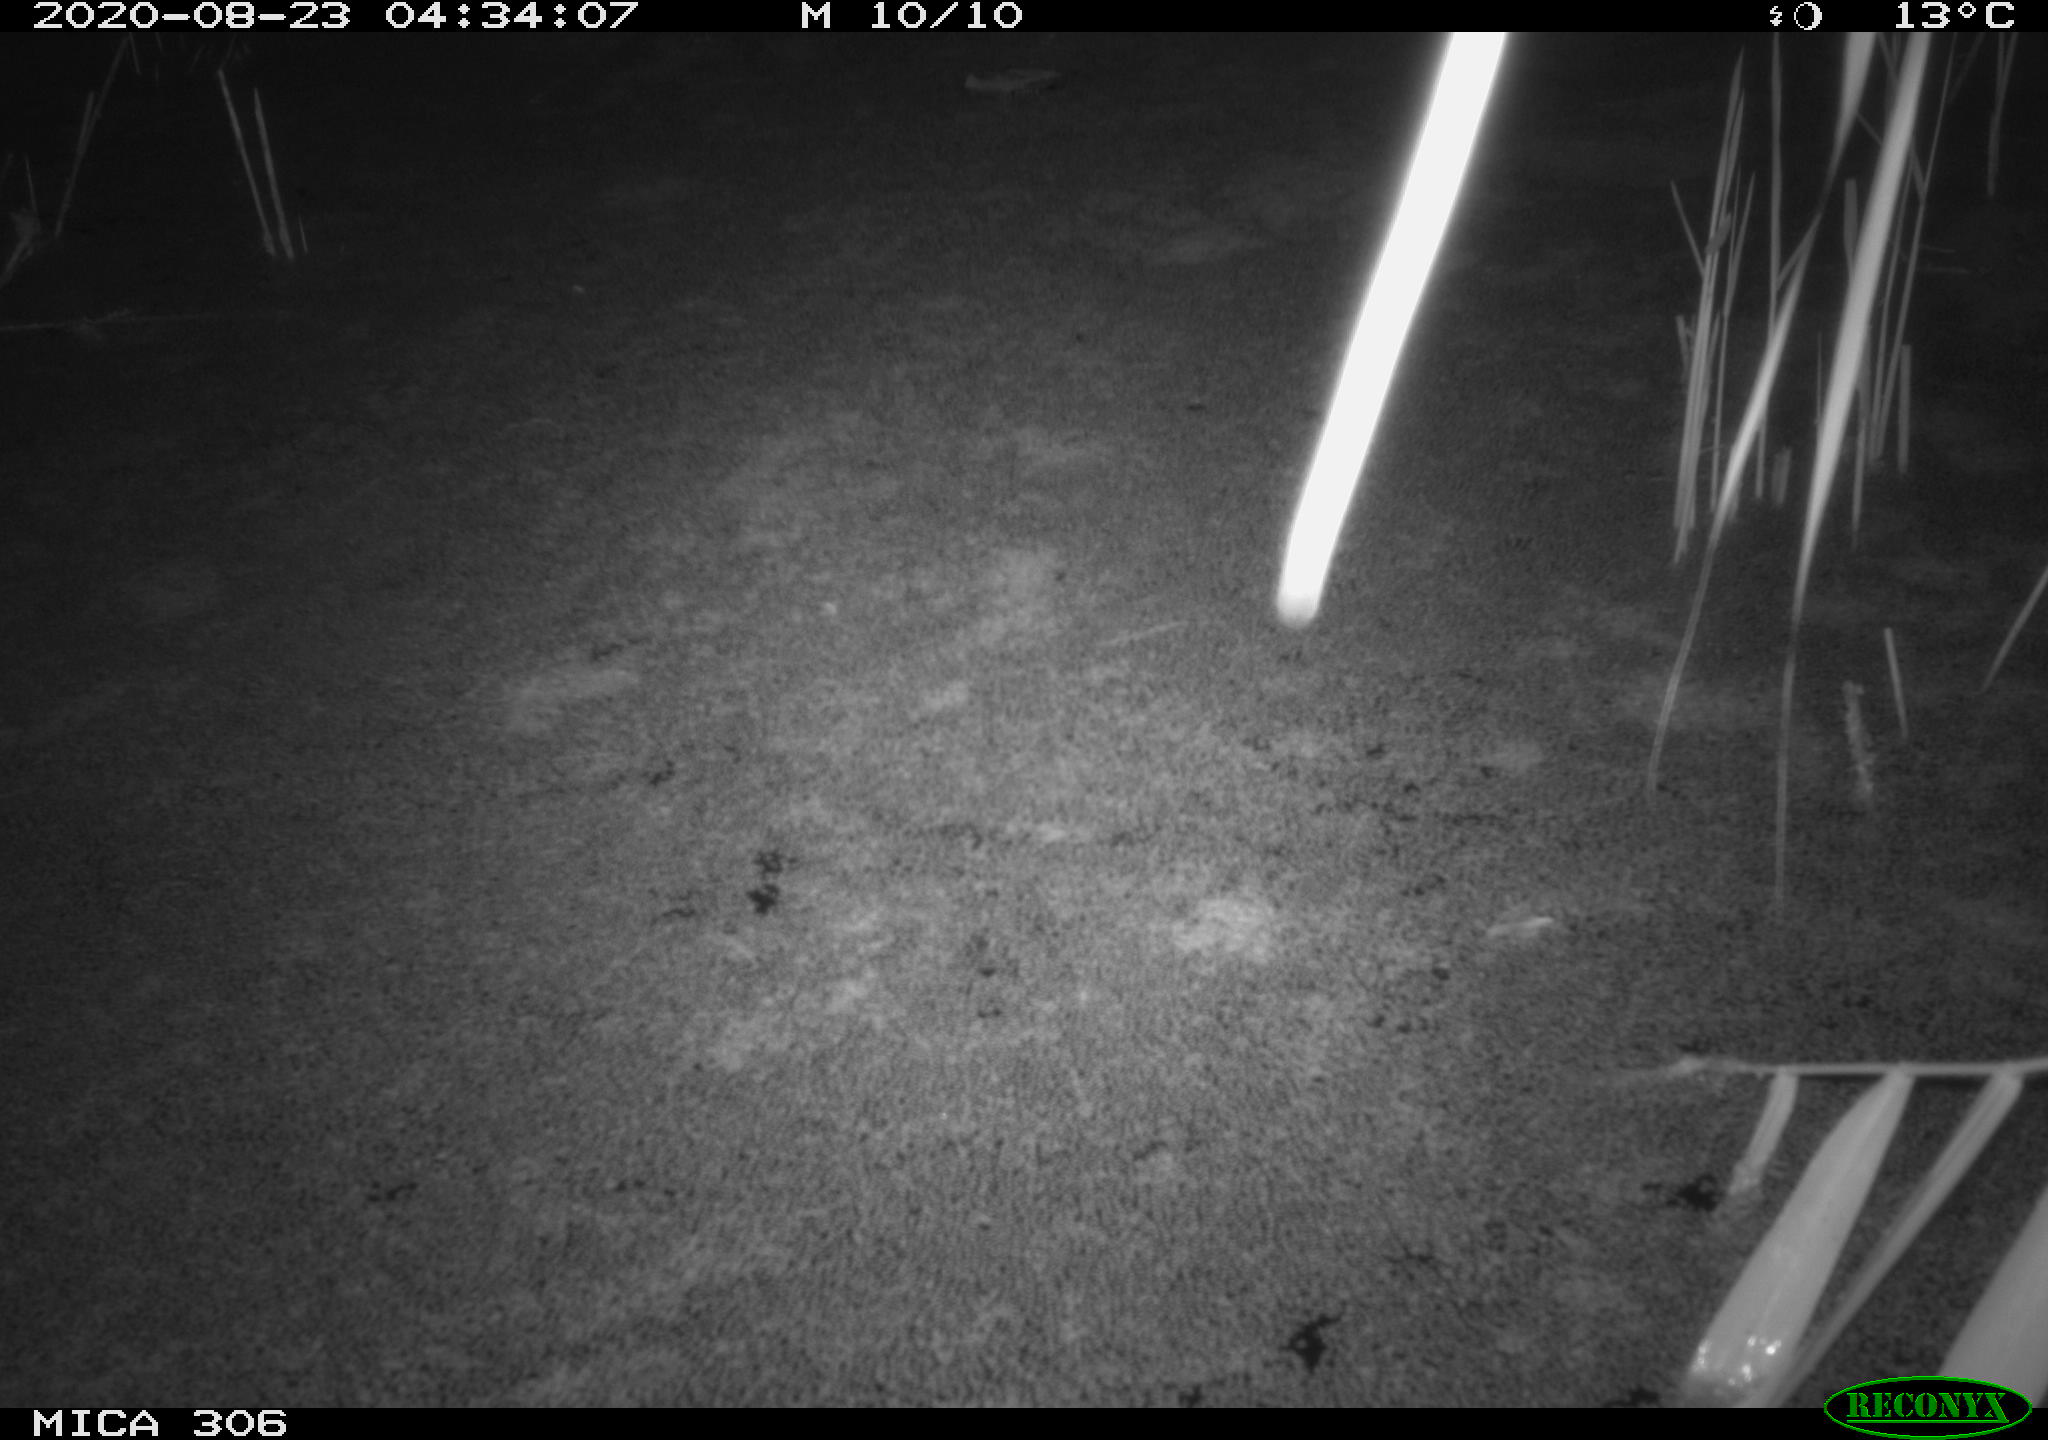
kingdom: Animalia
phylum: Chordata
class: Mammalia
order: Rodentia
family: Muridae
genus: Rattus
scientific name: Rattus norvegicus
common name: Brown rat
